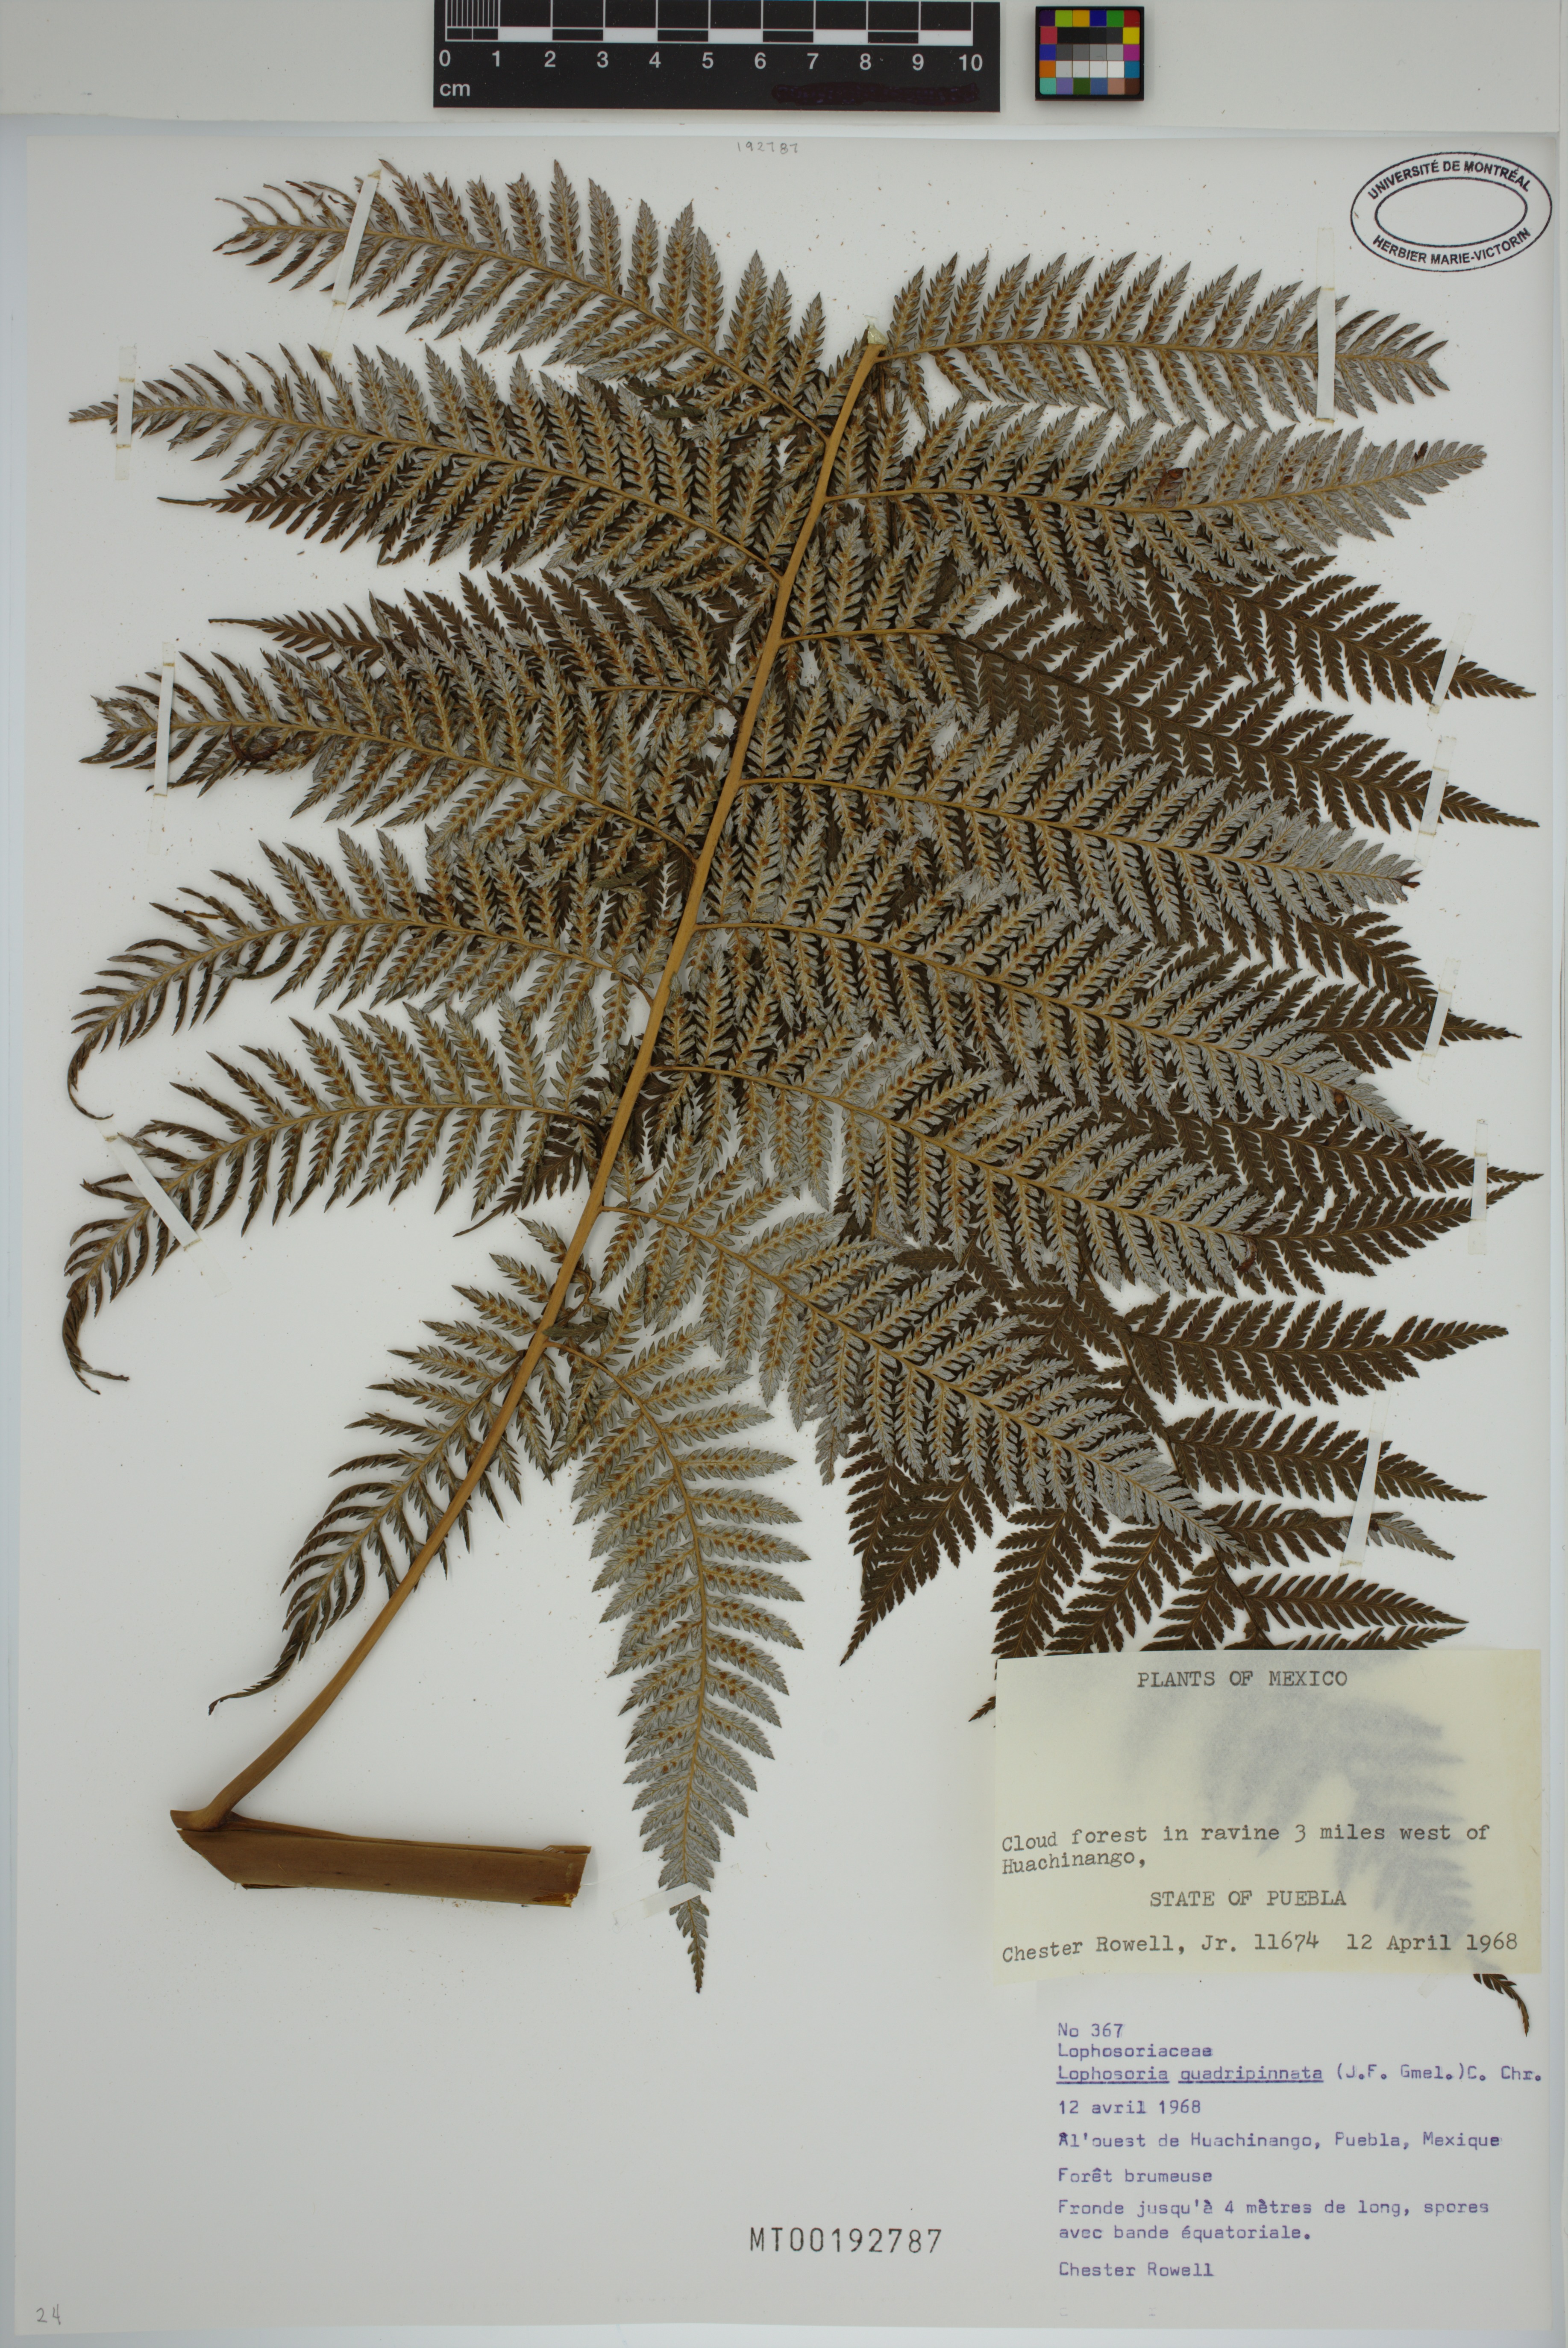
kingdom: Plantae
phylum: Tracheophyta
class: Polypodiopsida
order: Cyatheales
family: Dicksoniaceae
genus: Lophosoria
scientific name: Lophosoria quadripinnata
